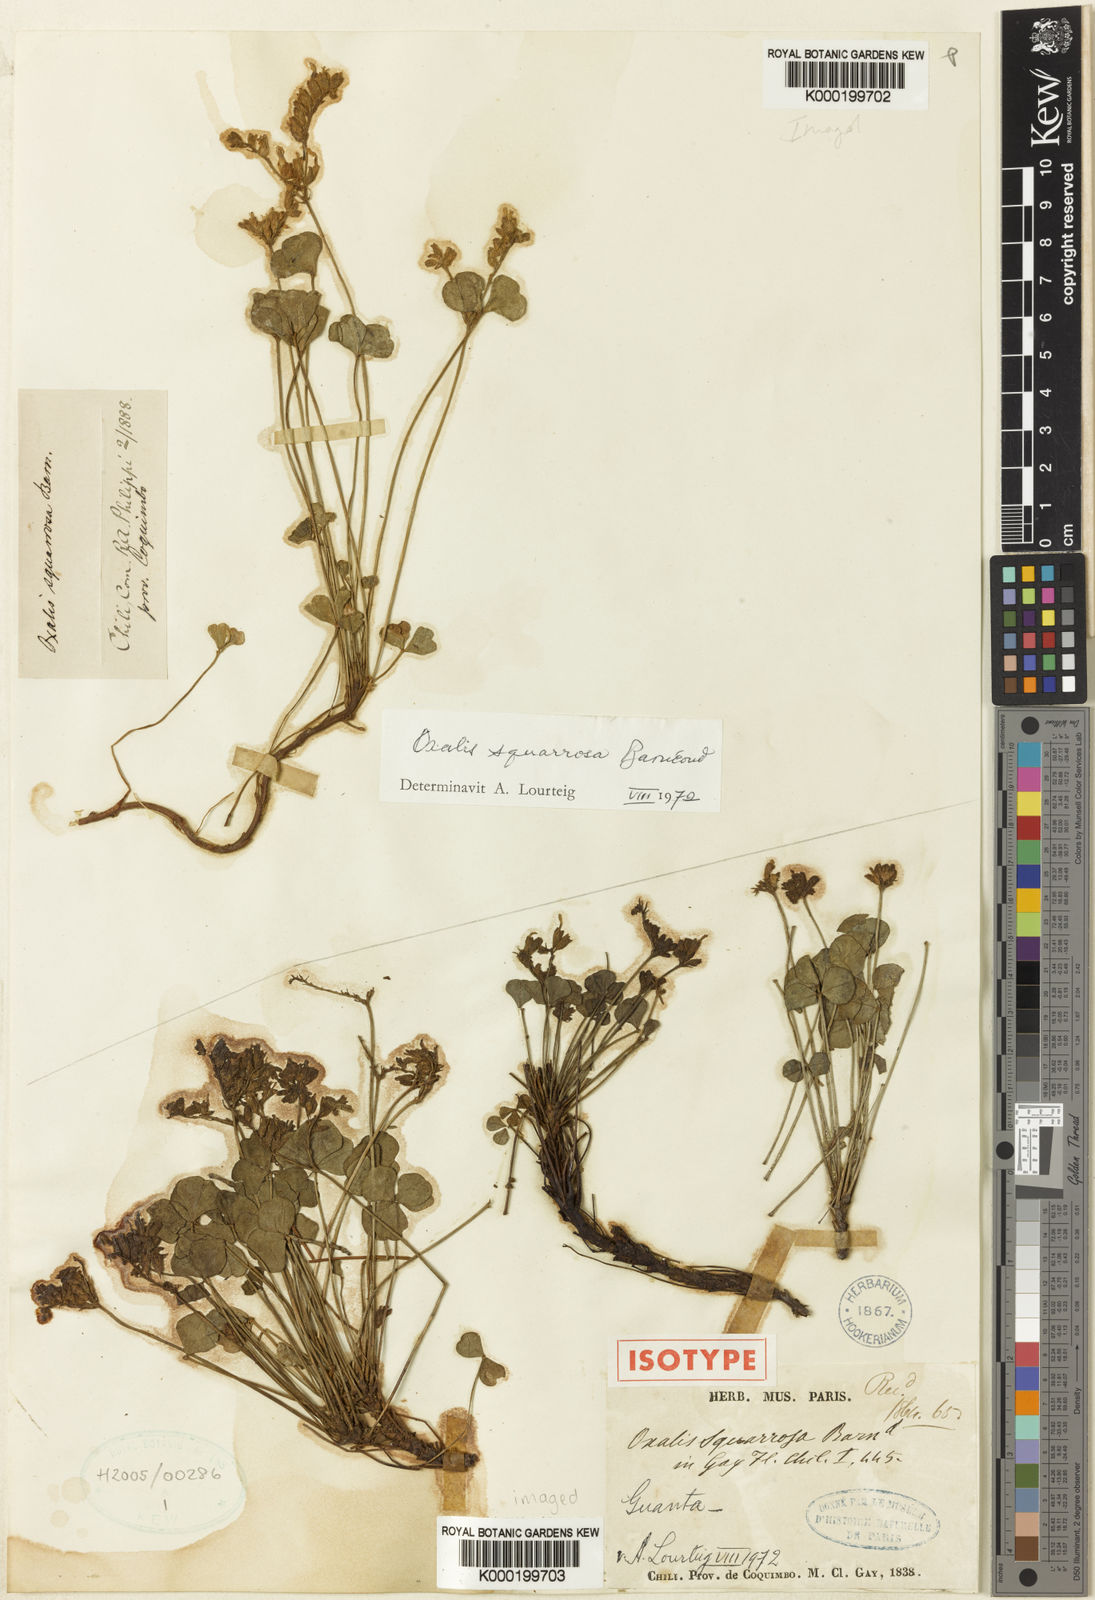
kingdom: Plantae
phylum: Tracheophyta
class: Magnoliopsida
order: Oxalidales
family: Oxalidaceae
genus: Oxalis
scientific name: Oxalis
